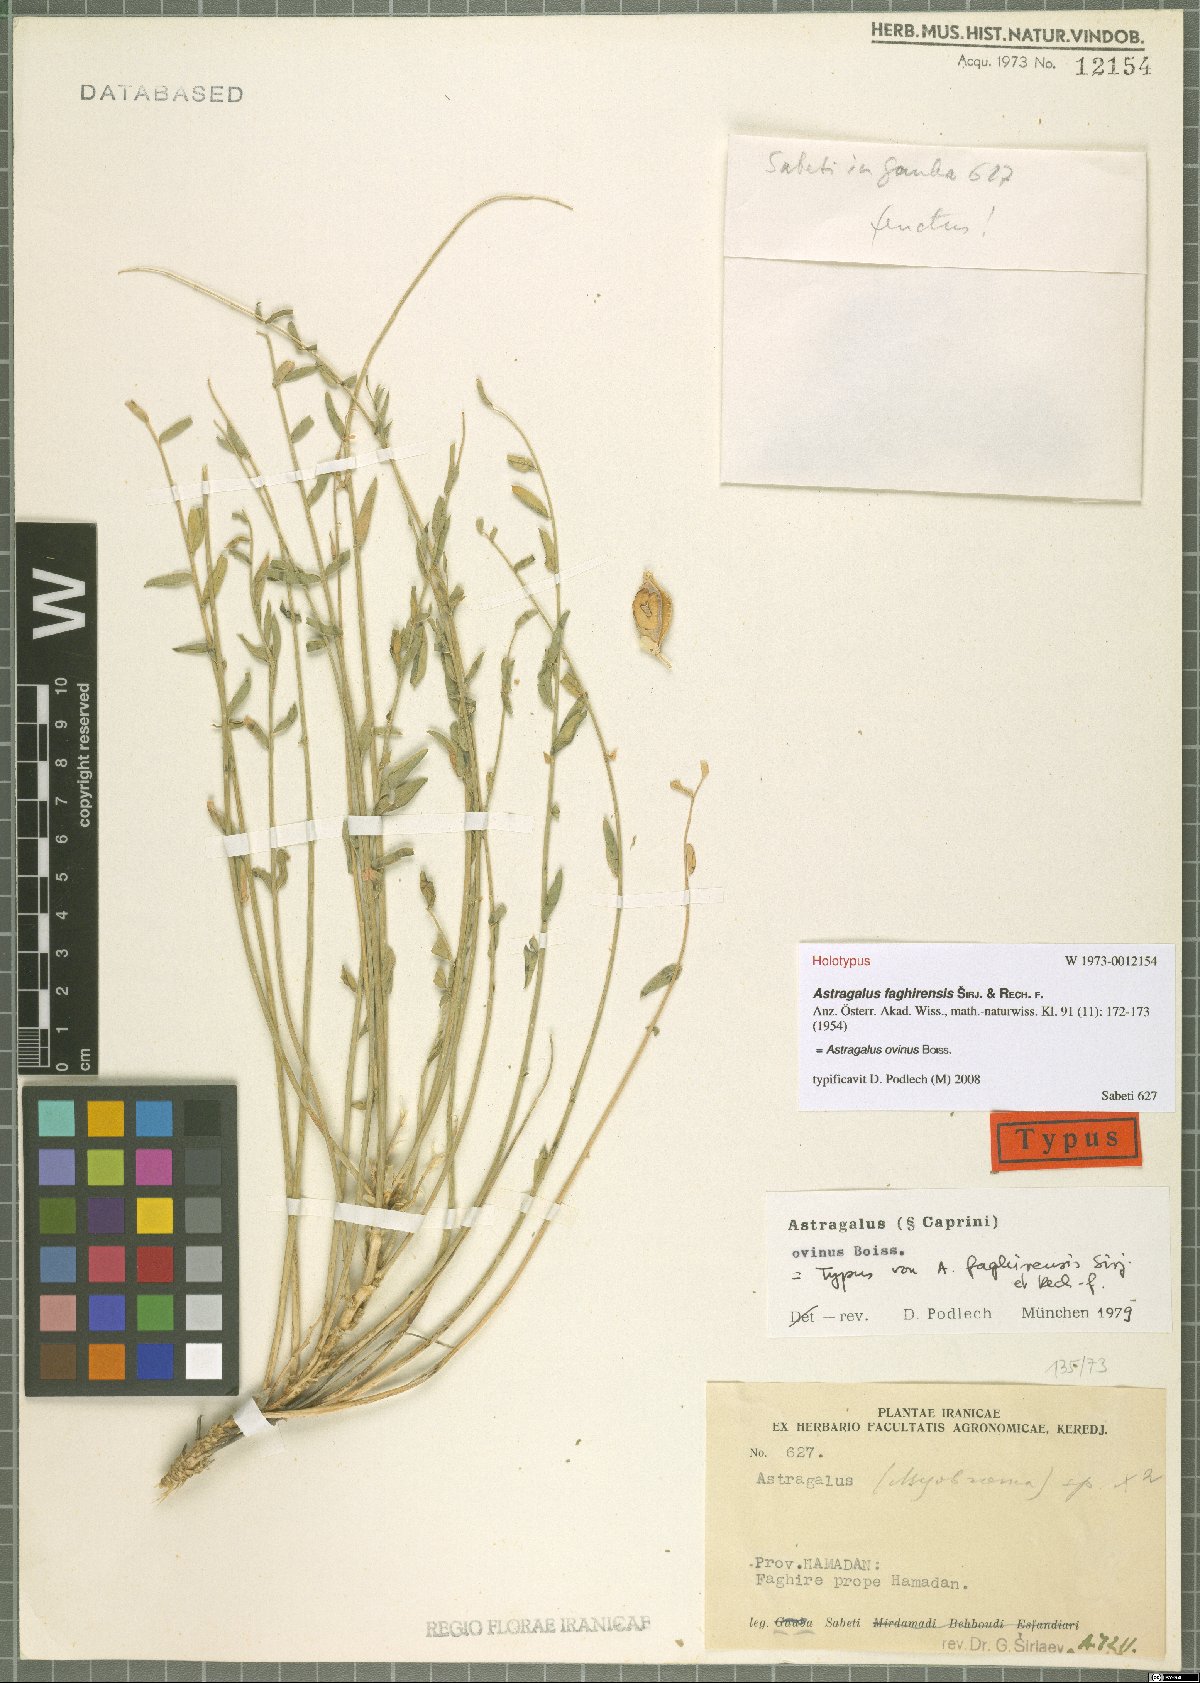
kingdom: Plantae
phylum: Tracheophyta
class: Magnoliopsida
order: Fabales
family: Fabaceae
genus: Astragalus
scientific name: Astragalus ovinus
